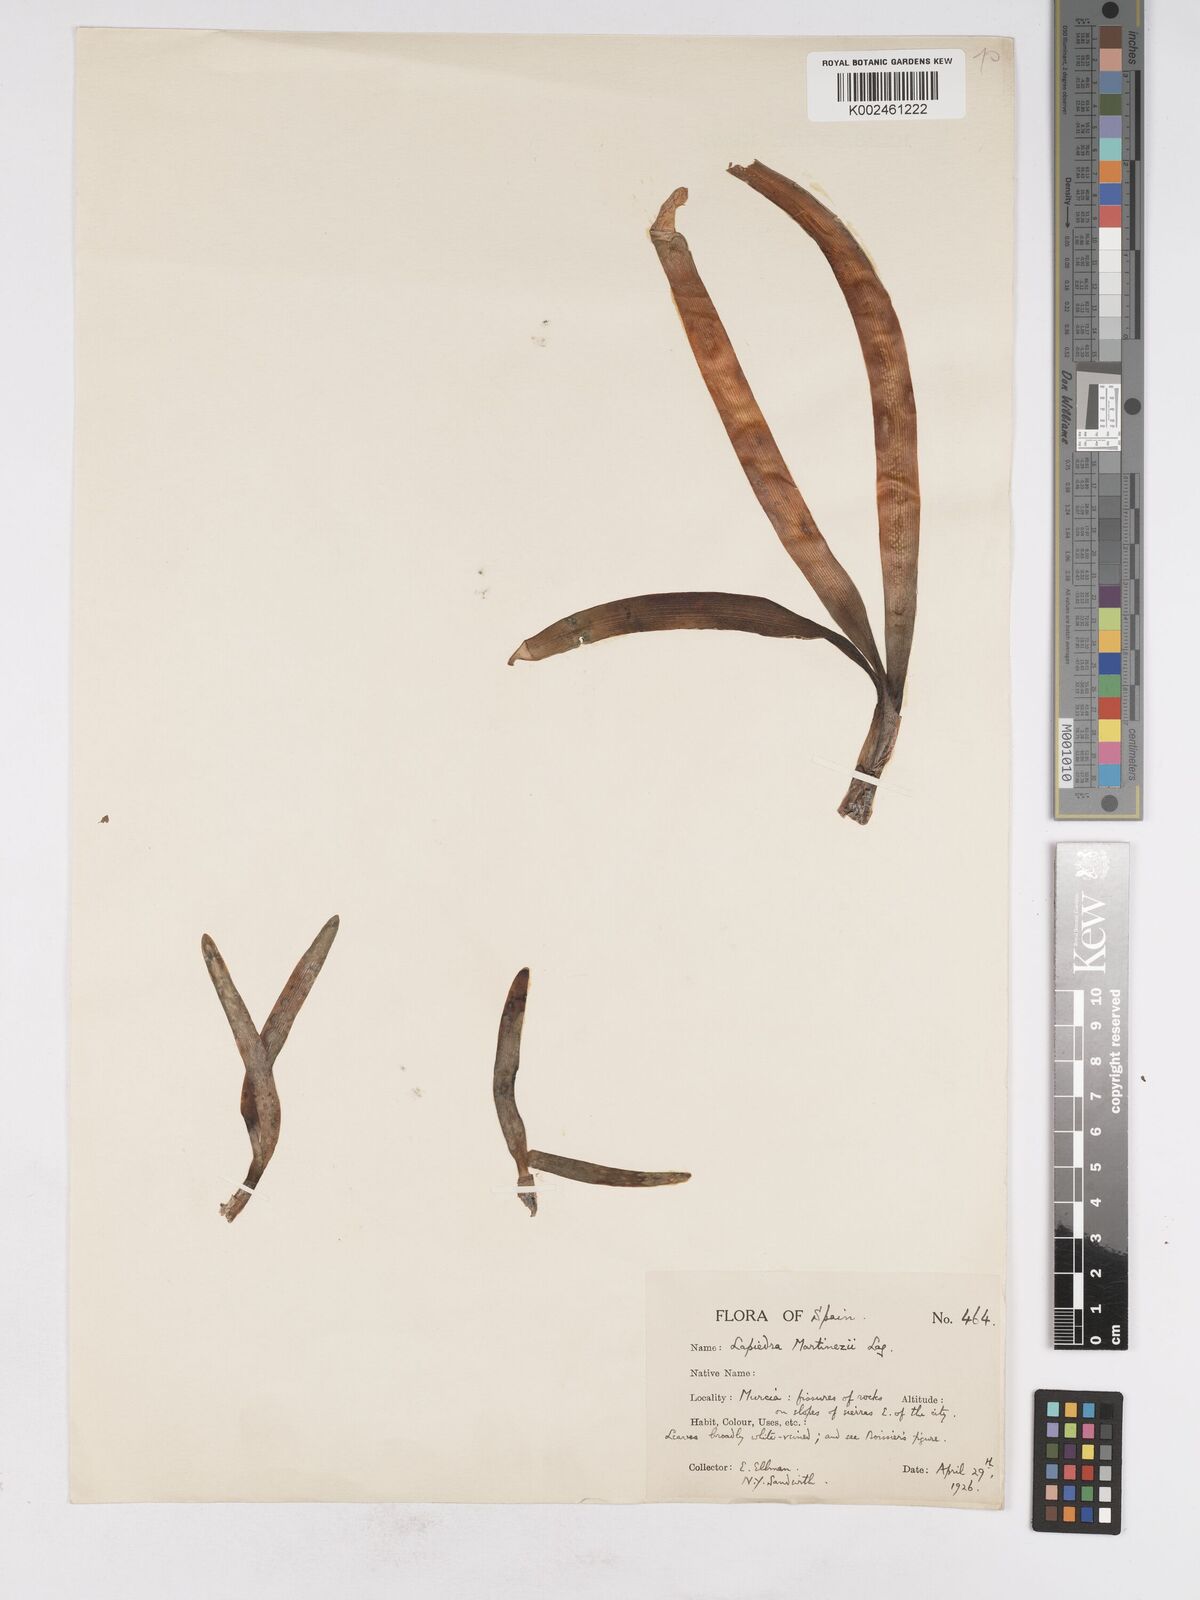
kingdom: Plantae
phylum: Tracheophyta
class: Liliopsida
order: Asparagales
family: Amaryllidaceae
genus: Lapiedra
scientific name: Lapiedra martinezii
